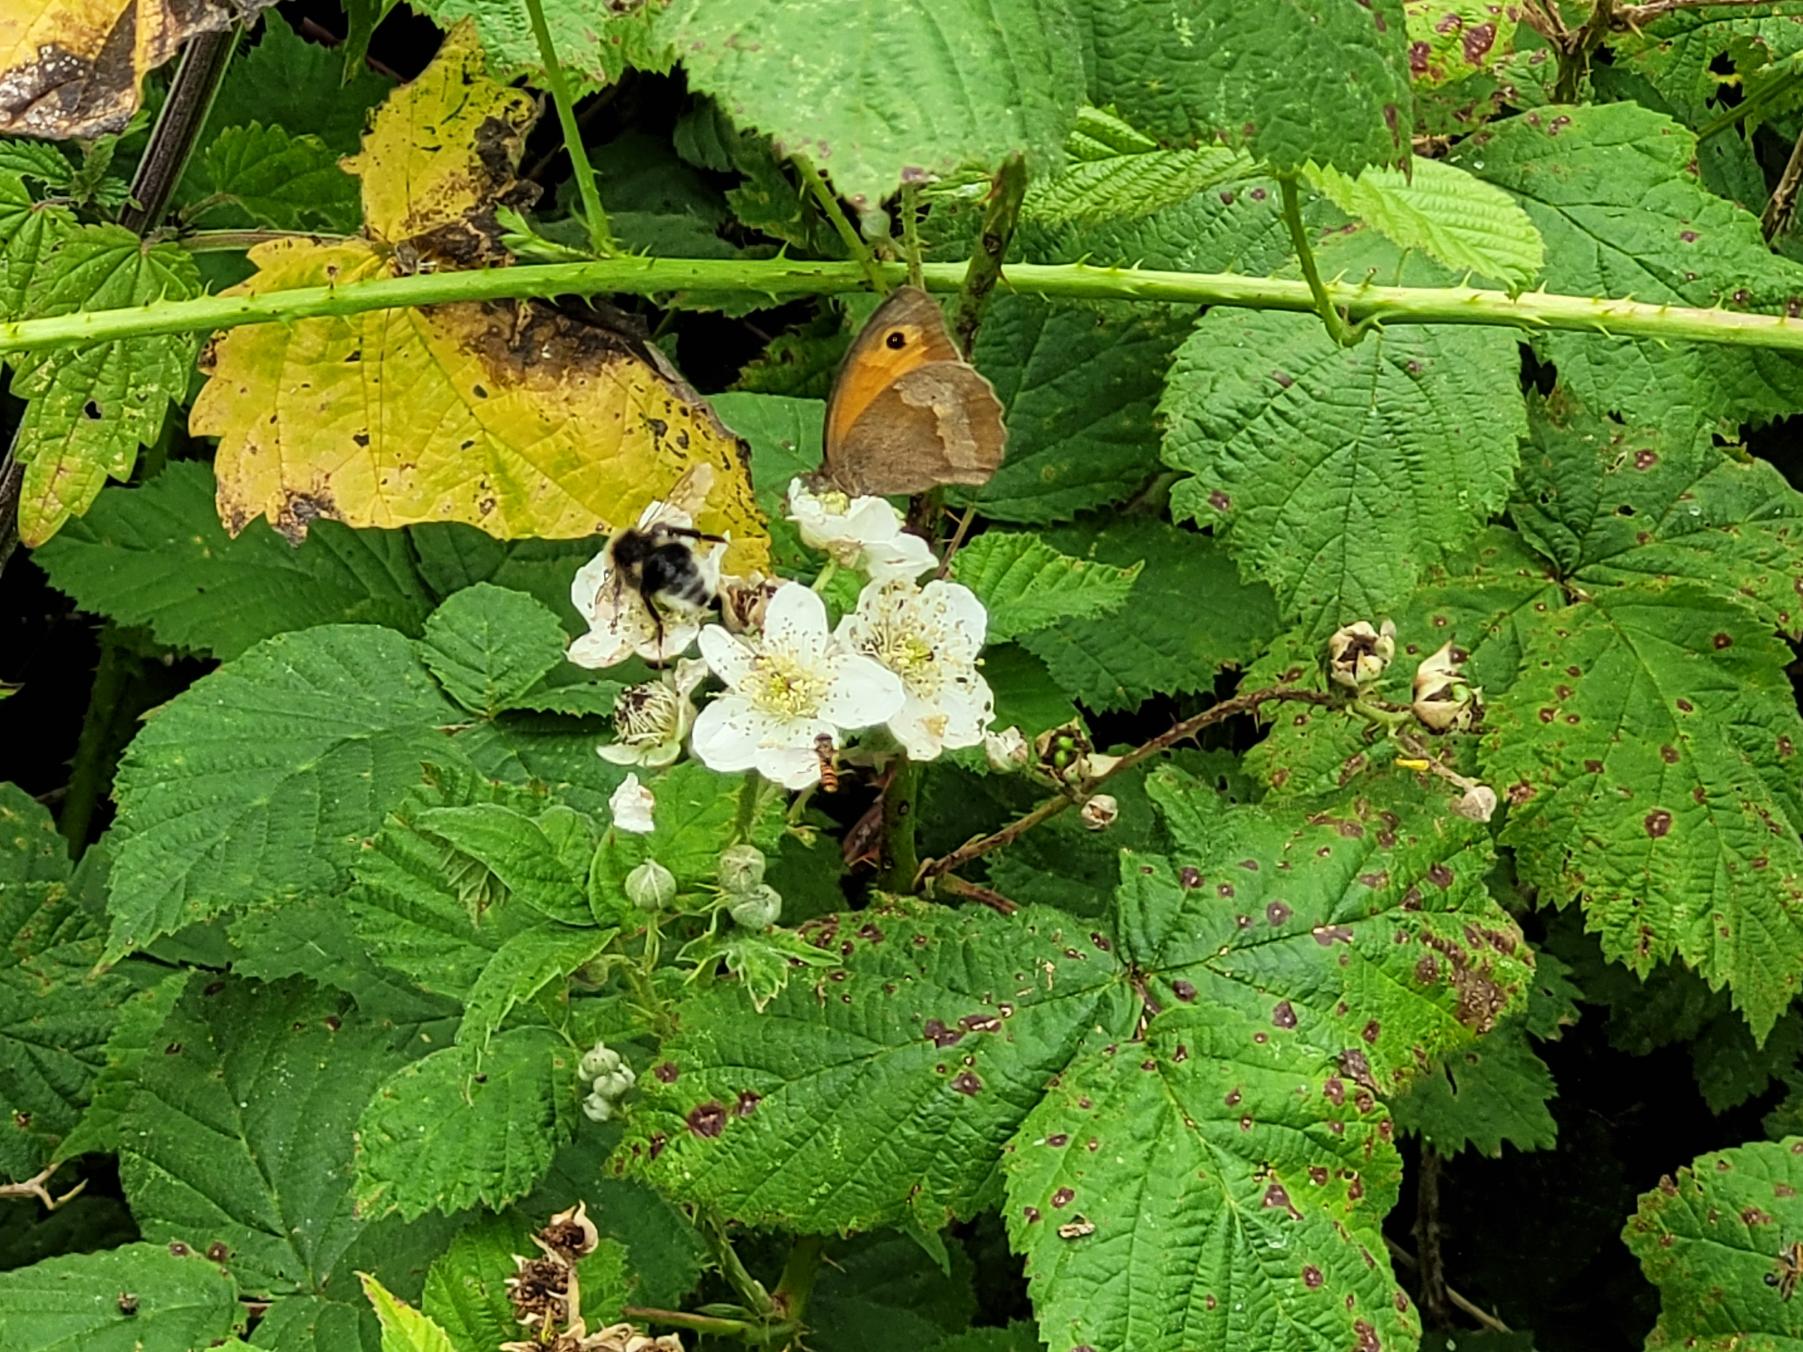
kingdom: Animalia
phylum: Arthropoda
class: Insecta
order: Lepidoptera
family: Nymphalidae
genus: Maniola
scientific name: Maniola jurtina
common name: Græsrandøje
